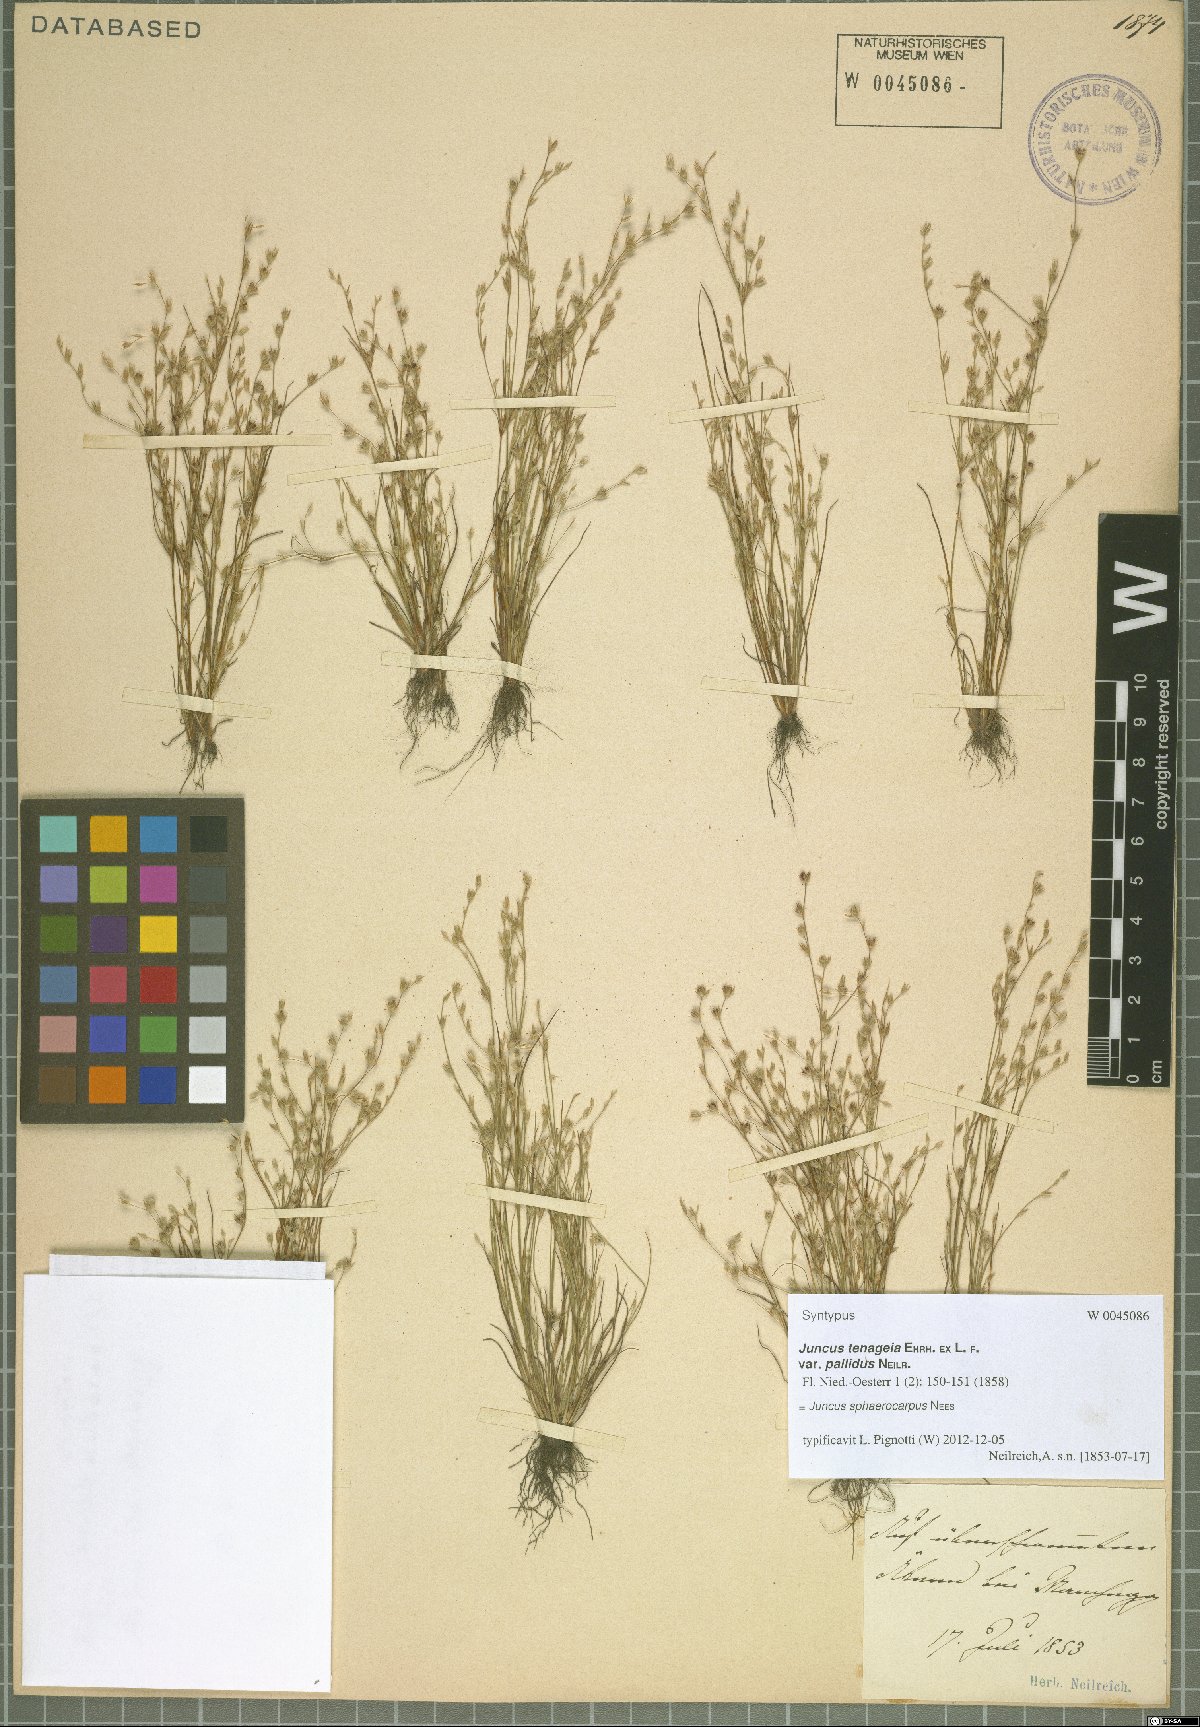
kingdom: Plantae
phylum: Tracheophyta
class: Liliopsida
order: Poales
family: Juncaceae
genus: Juncus
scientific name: Juncus sphaerocarpus
